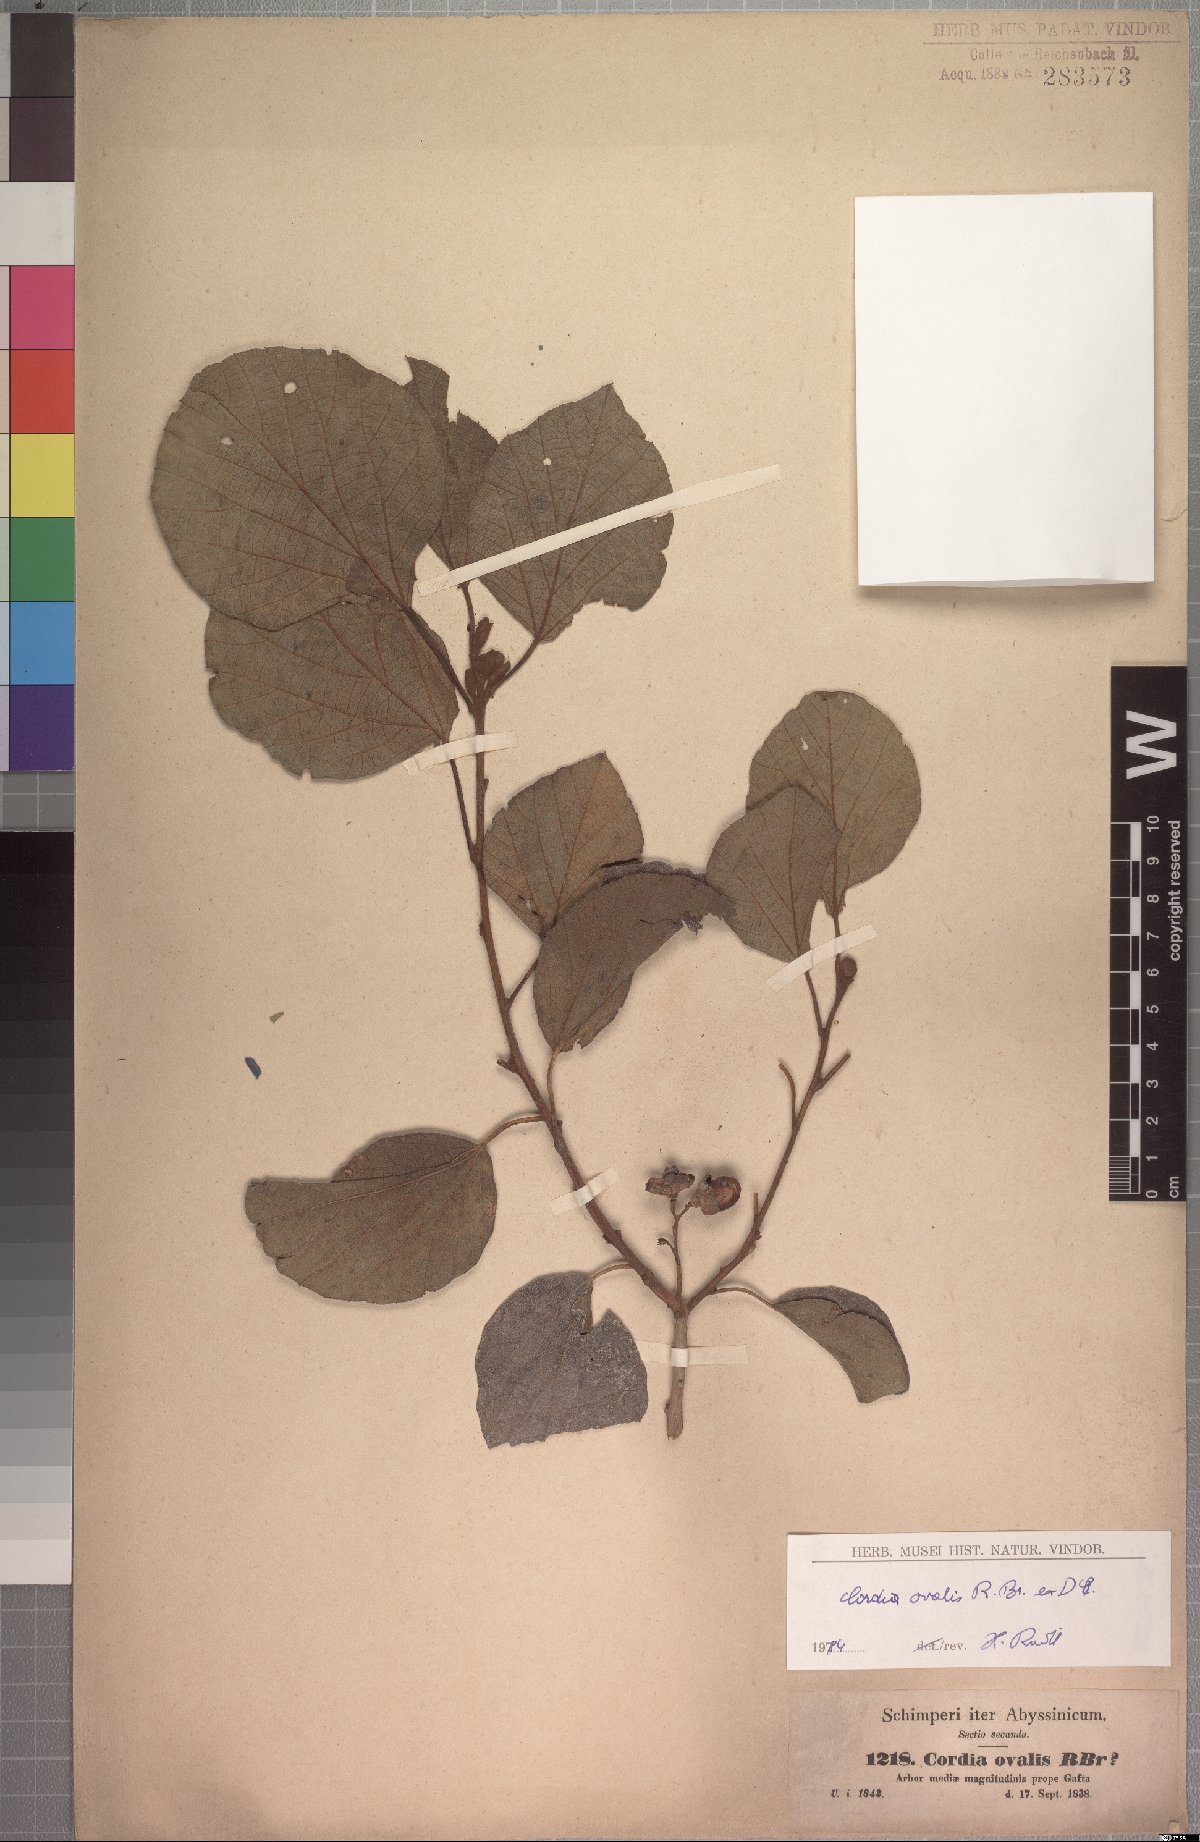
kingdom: Plantae
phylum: Tracheophyta
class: Magnoliopsida
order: Boraginales
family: Cordiaceae
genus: Cordia
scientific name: Cordia monoica
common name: Snot berry
